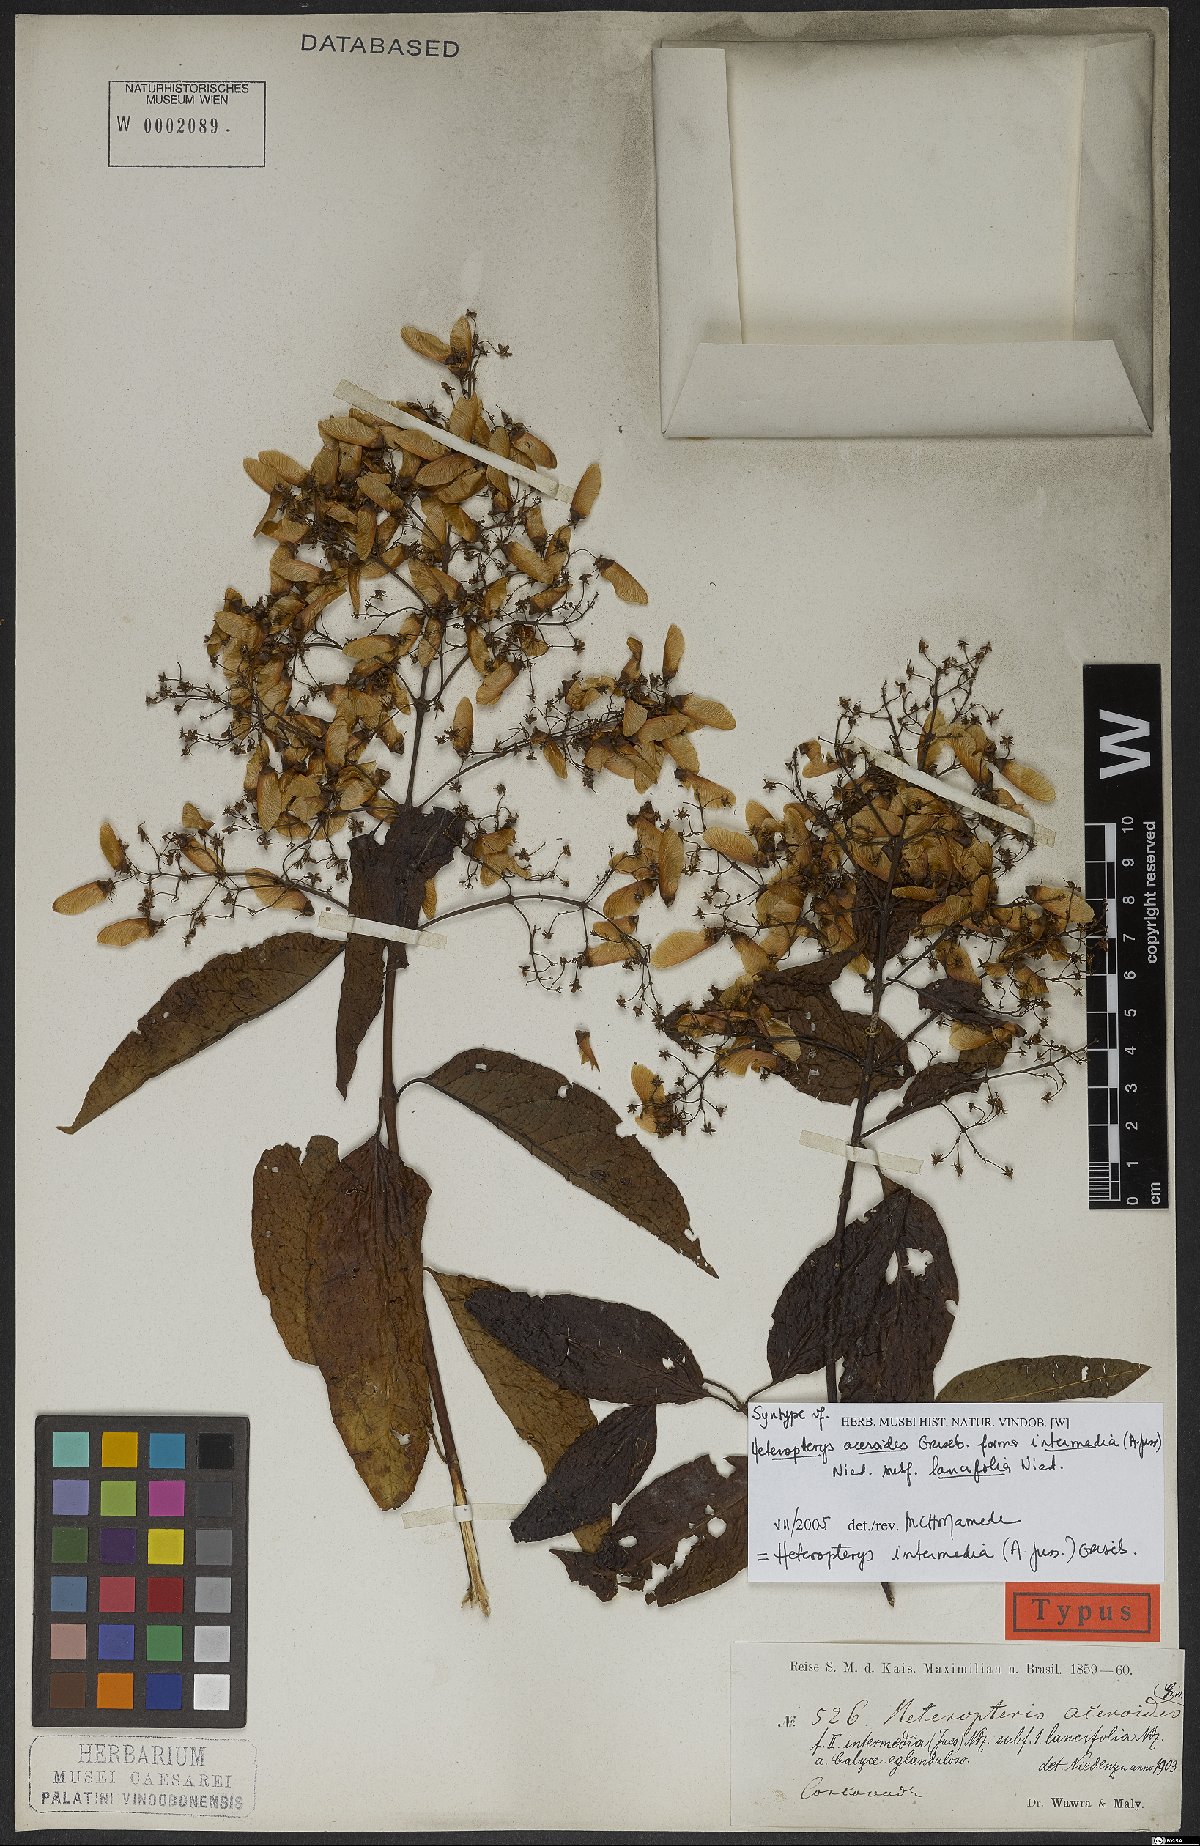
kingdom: Plantae
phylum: Tracheophyta
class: Magnoliopsida
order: Malpighiales
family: Malpighiaceae
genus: Heteropterys
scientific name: Heteropterys intermedia
